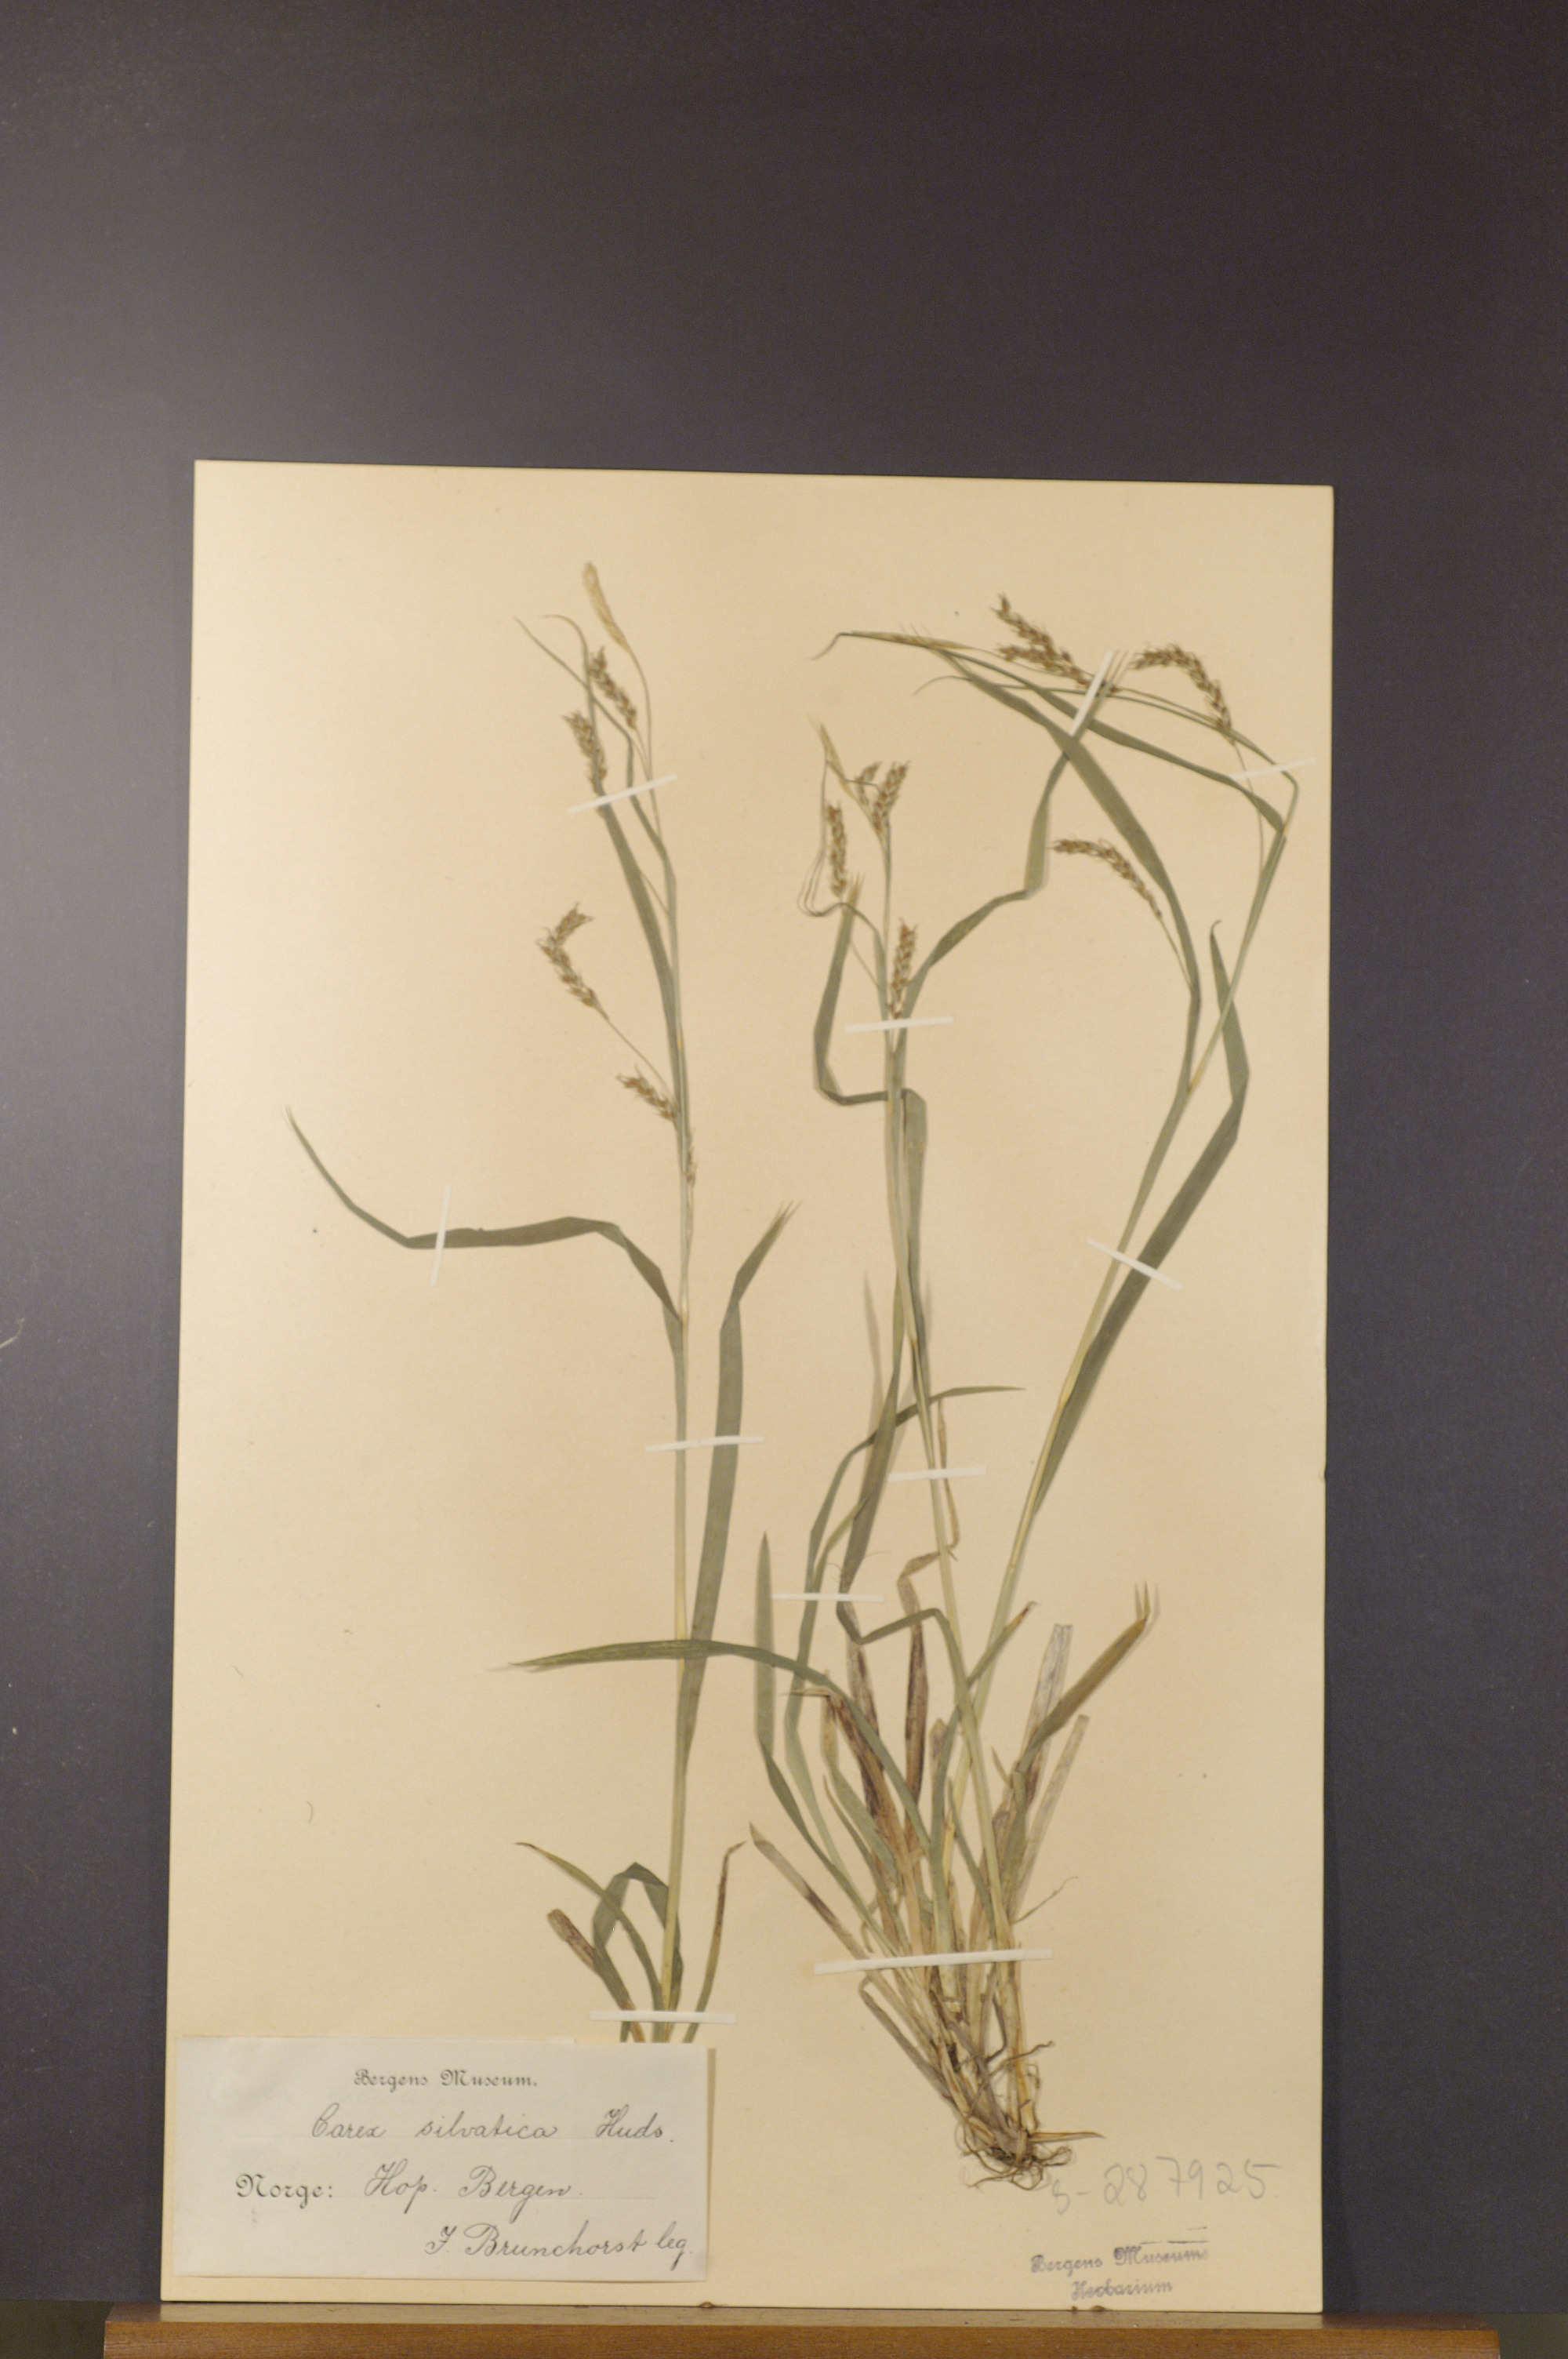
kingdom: Plantae
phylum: Tracheophyta
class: Liliopsida
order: Poales
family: Cyperaceae
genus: Carex
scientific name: Carex sylvatica
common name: Wood-sedge
